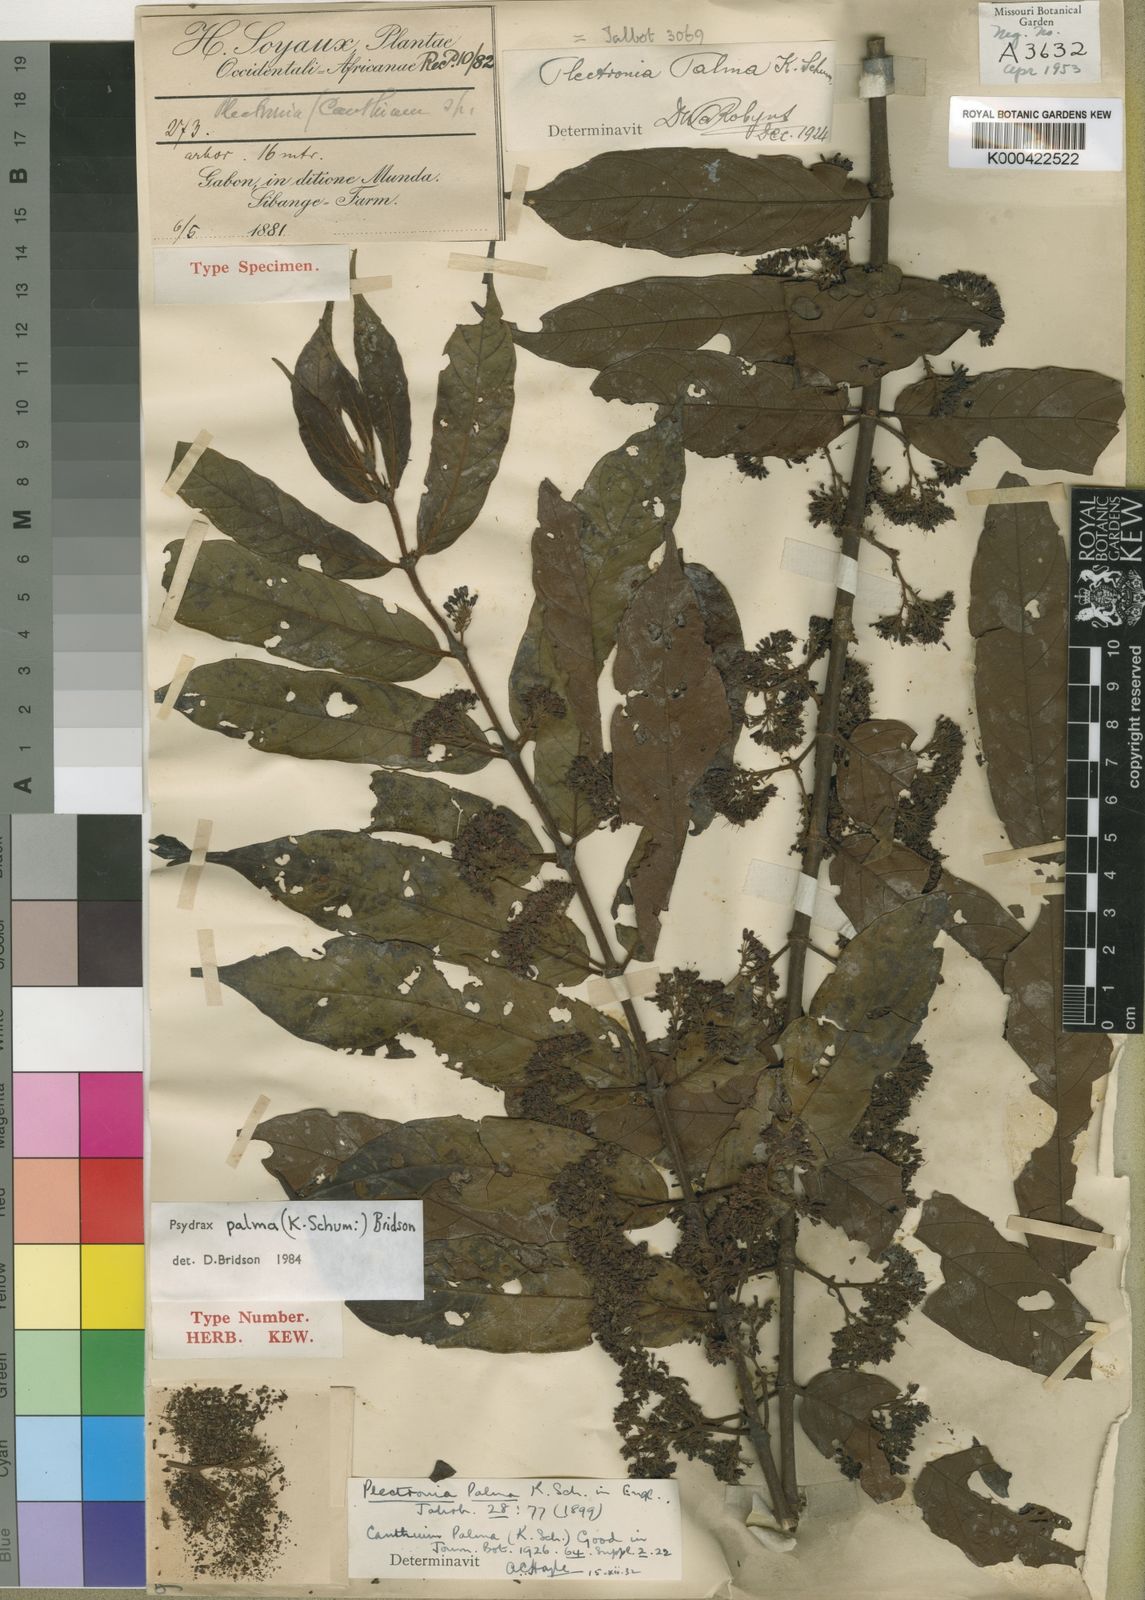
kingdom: Plantae
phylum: Tracheophyta
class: Magnoliopsida
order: Gentianales
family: Rubiaceae
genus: Psydrax
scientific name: Psydrax palma
